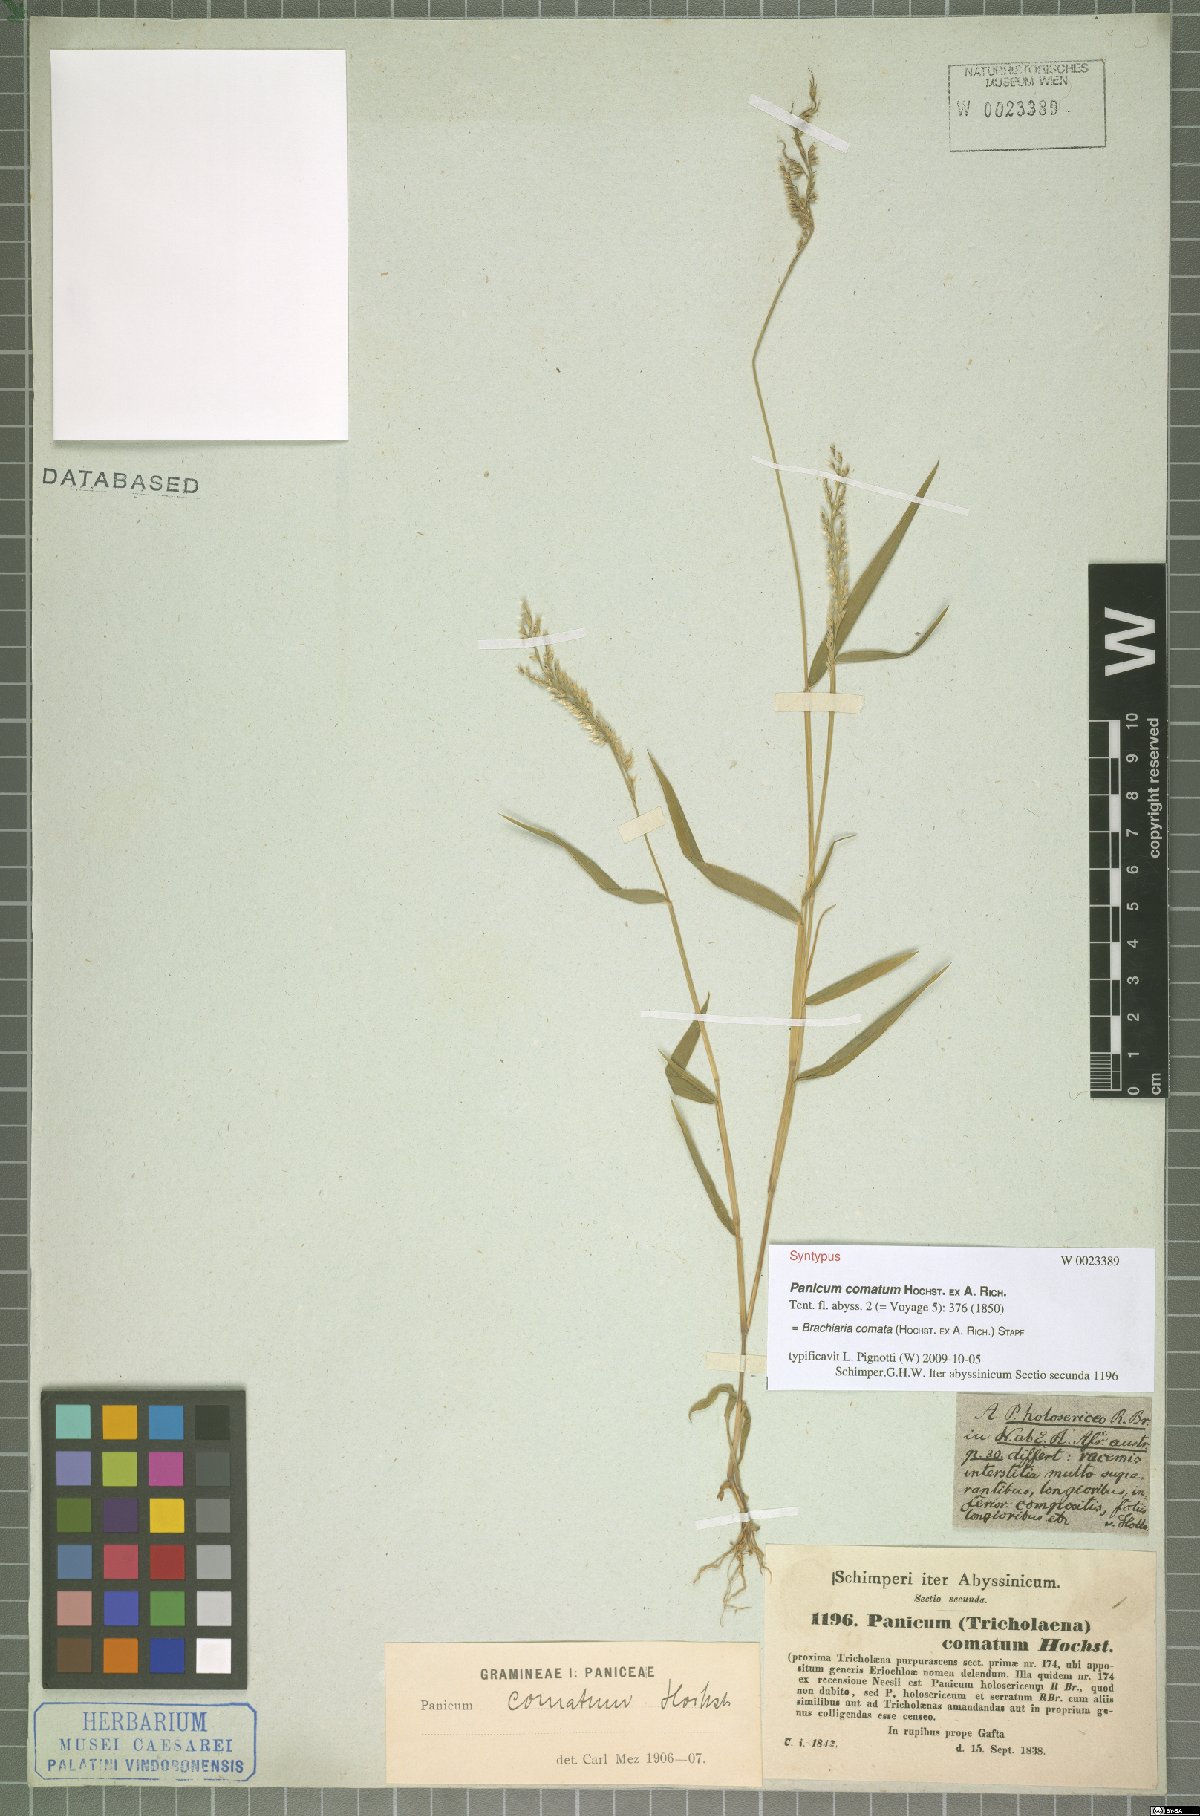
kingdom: Plantae
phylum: Tracheophyta
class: Liliopsida
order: Poales
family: Poaceae
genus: Urochloa
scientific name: Urochloa comata
